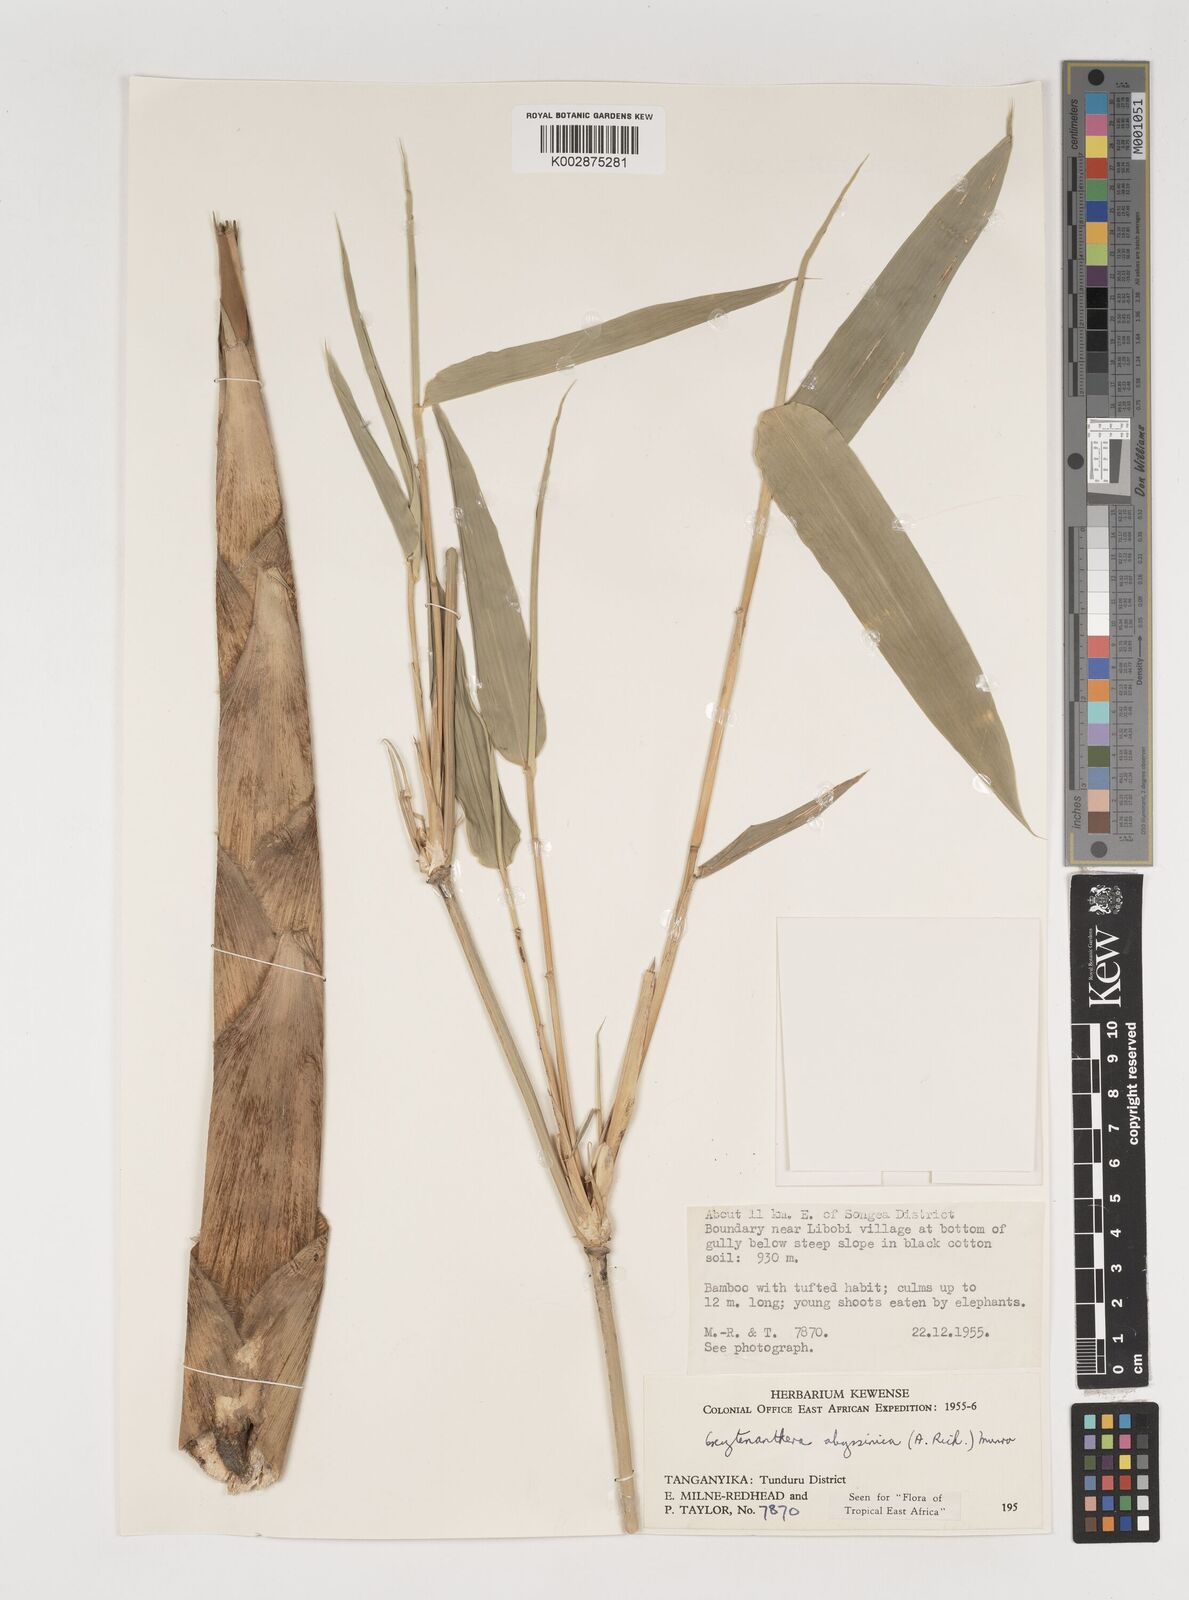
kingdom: Plantae
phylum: Tracheophyta
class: Liliopsida
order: Poales
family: Poaceae
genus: Oxytenanthera
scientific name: Oxytenanthera abyssinica
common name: Wine bamboo
